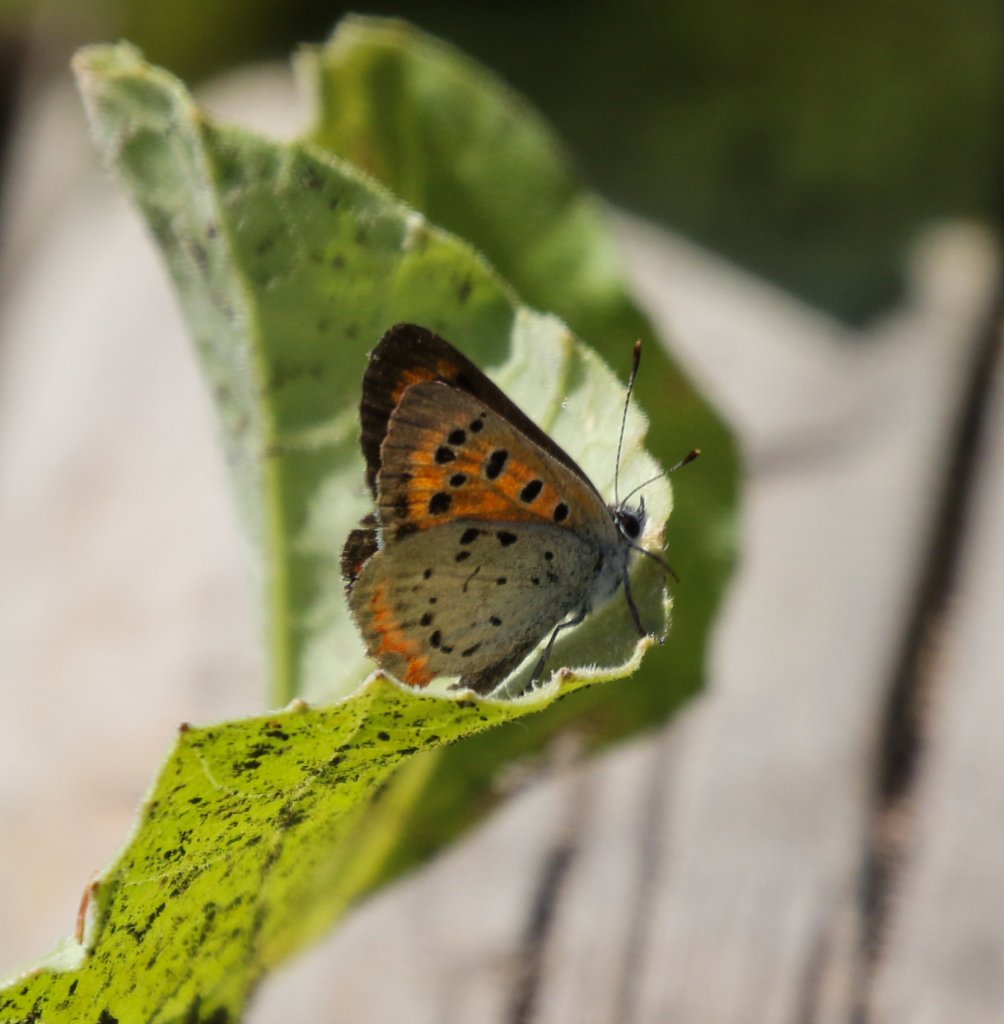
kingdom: Animalia
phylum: Arthropoda
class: Insecta
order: Lepidoptera
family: Lycaenidae
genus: Lycaena
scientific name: Lycaena phlaeas
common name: American Copper
